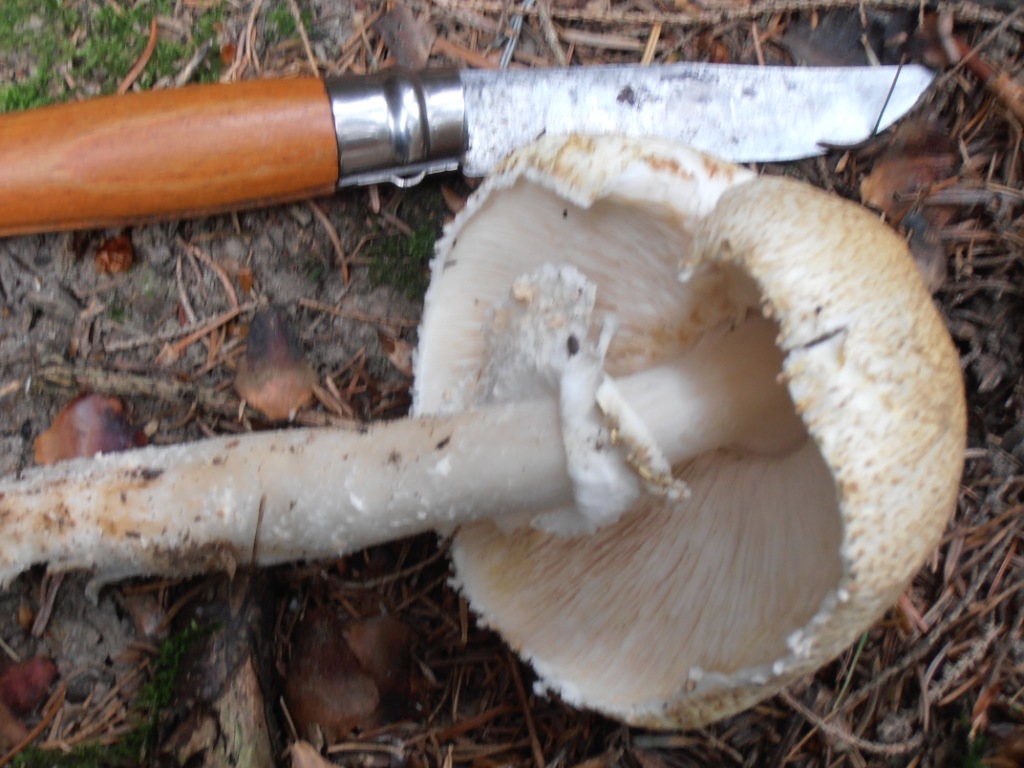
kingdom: Fungi
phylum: Basidiomycota
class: Agaricomycetes
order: Agaricales
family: Agaricaceae
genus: Agaricus
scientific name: Agaricus augustus
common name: prægtig champignon
